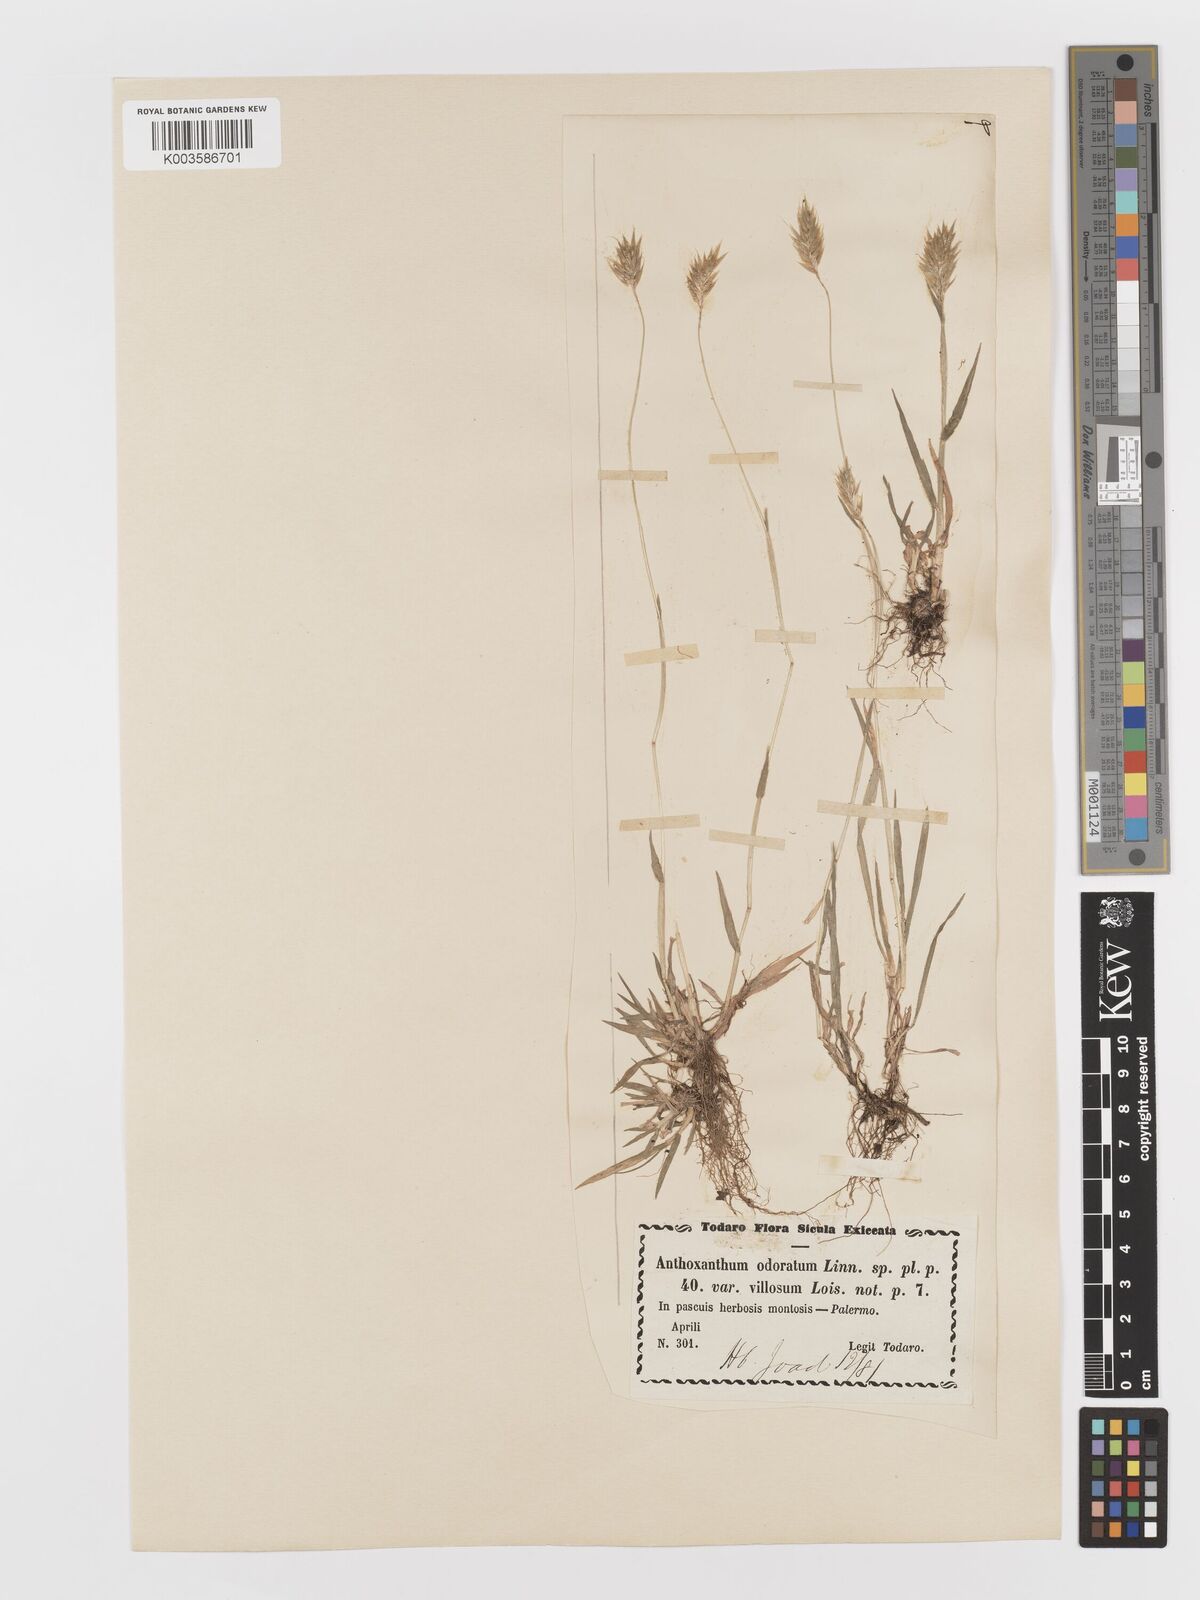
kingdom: Plantae
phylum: Tracheophyta
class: Liliopsida
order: Poales
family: Poaceae
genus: Anthoxanthum
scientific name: Anthoxanthum odoratum
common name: Sweet vernalgrass
